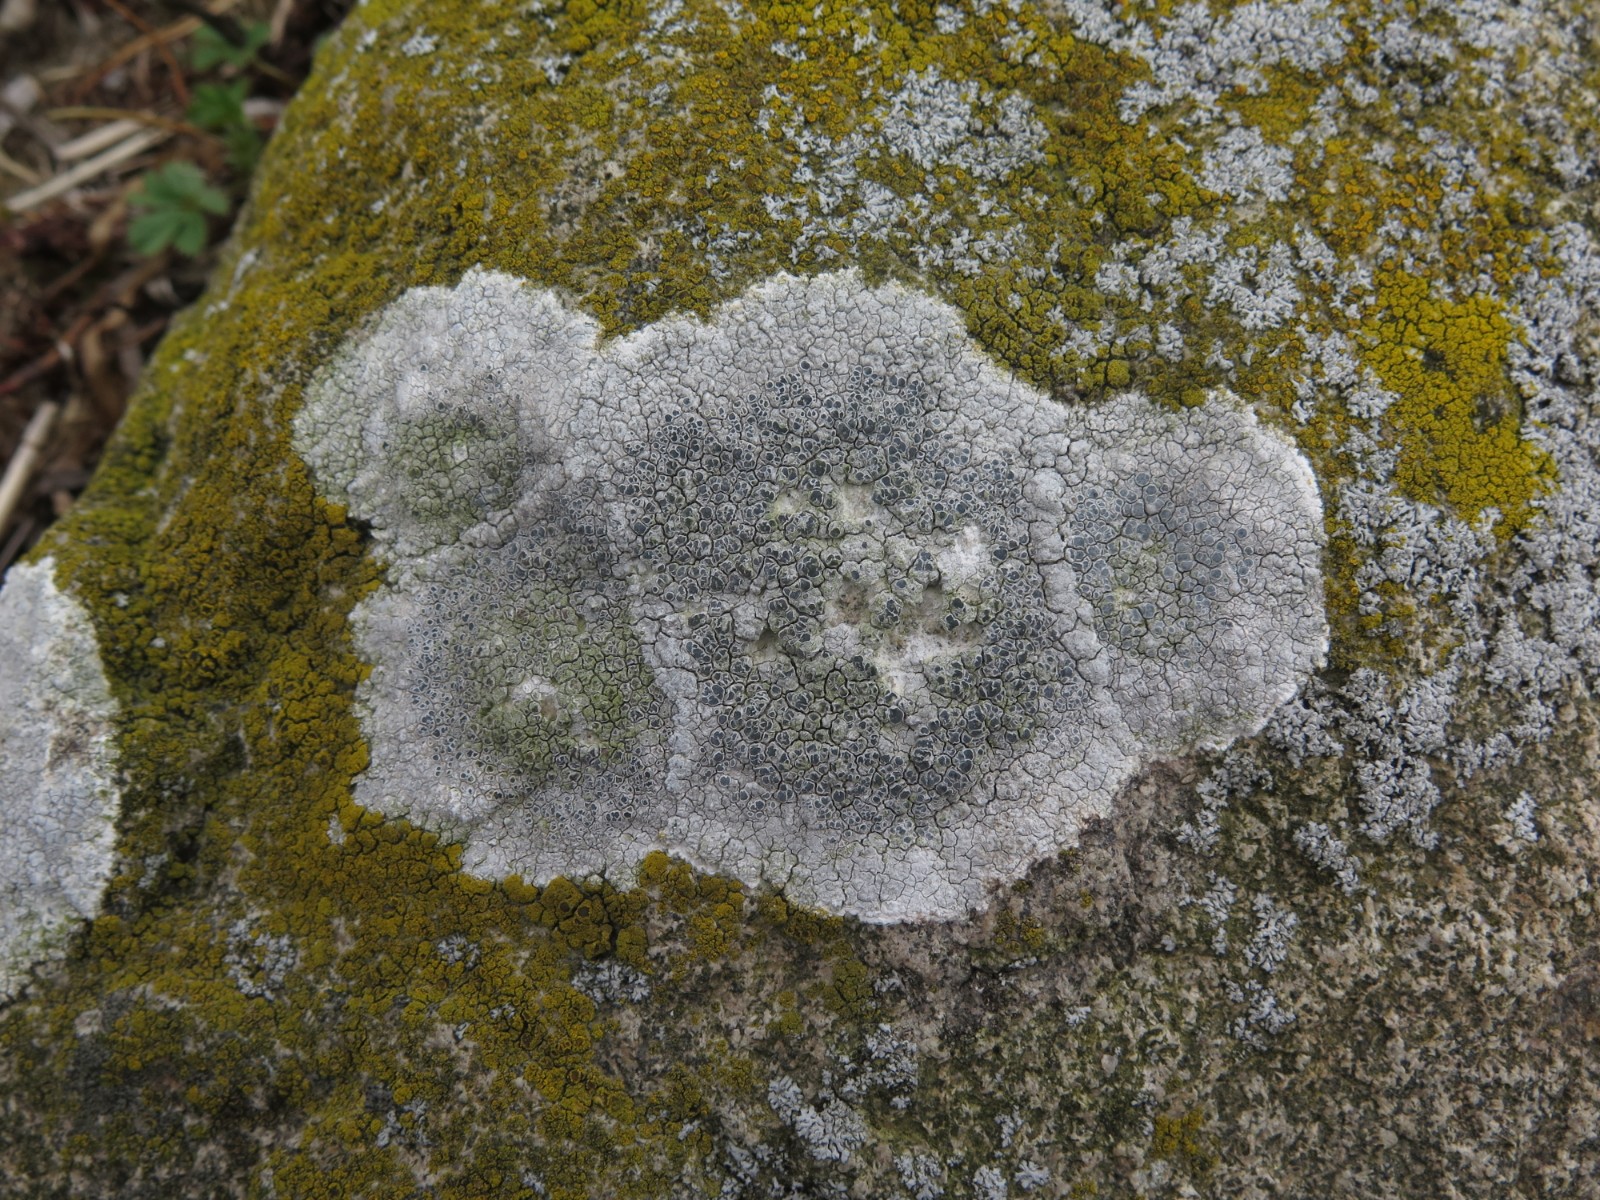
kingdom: Fungi
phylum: Ascomycota
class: Lecanoromycetes
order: Lecanorales
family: Lecanoraceae
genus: Glaucomaria
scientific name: Glaucomaria rupicola
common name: stengærde-kantskivelav
